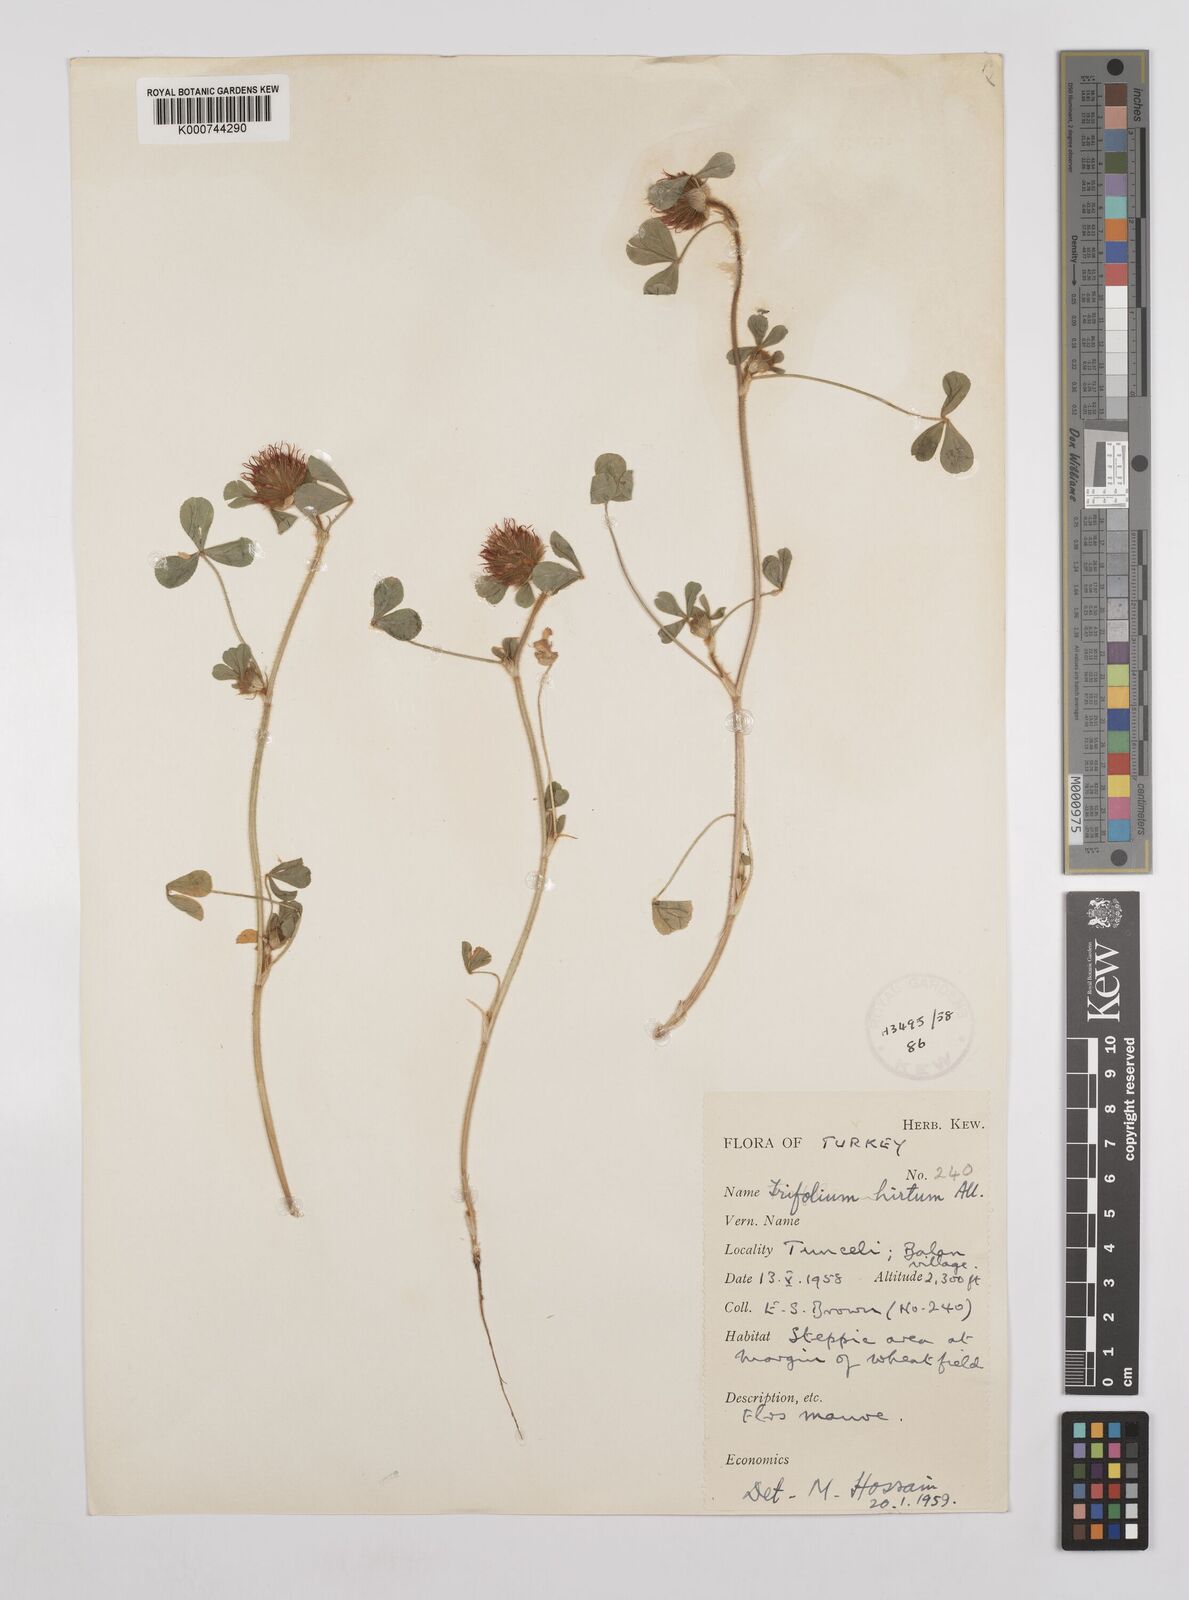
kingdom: Plantae
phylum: Tracheophyta
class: Magnoliopsida
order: Fabales
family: Fabaceae
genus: Trifolium
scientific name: Trifolium hirtum
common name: Rose clover
